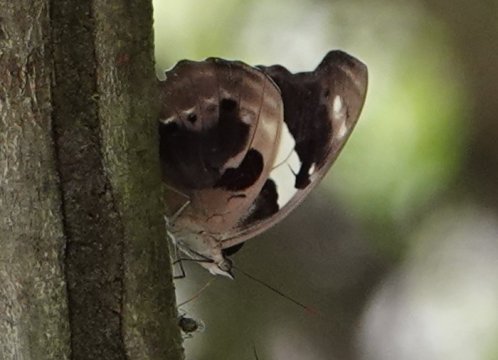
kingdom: Animalia
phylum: Arthropoda
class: Insecta
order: Lepidoptera
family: Nymphalidae
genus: Catonephele
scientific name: Catonephele numilia
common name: Blue-frosted Banner
